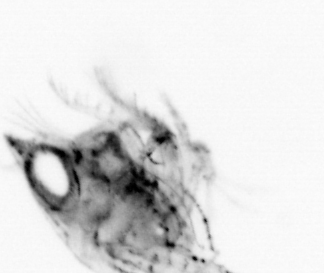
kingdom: Animalia
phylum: Arthropoda
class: Malacostraca
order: Decapoda
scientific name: Decapoda
